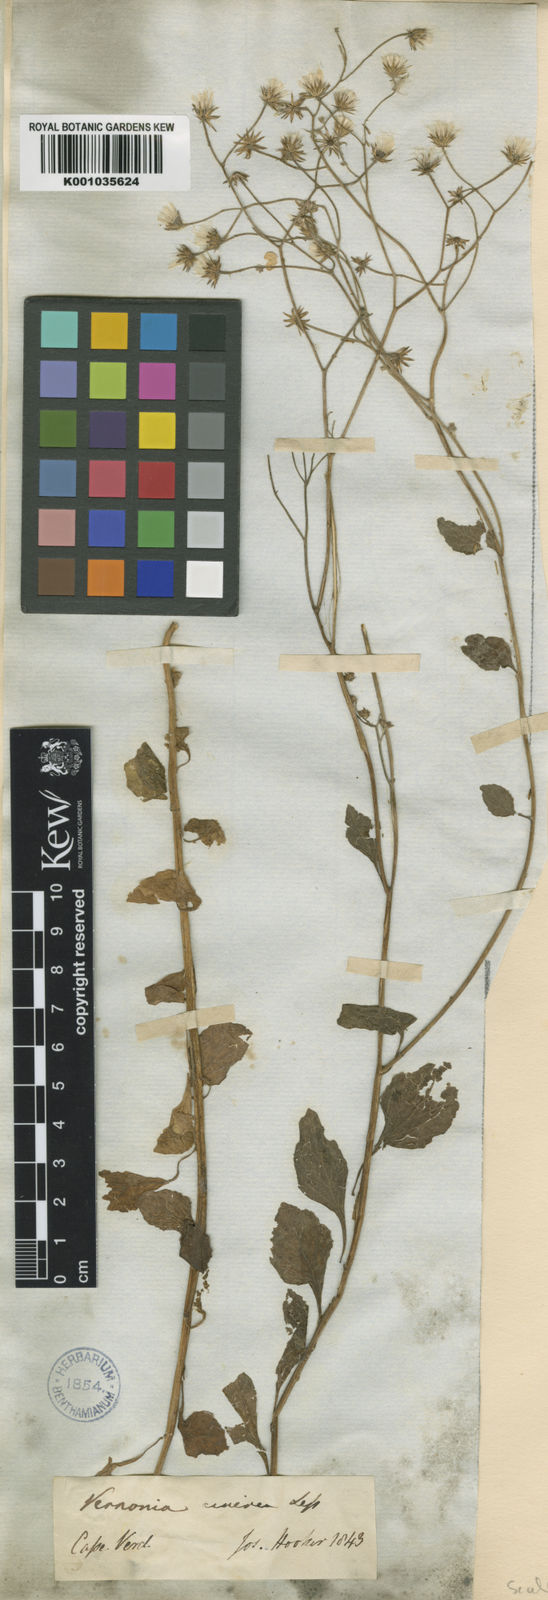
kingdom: Plantae
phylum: Tracheophyta
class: Magnoliopsida
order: Asterales
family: Asteraceae
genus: Cyanthillium
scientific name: Cyanthillium cinereum
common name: Little ironweed
